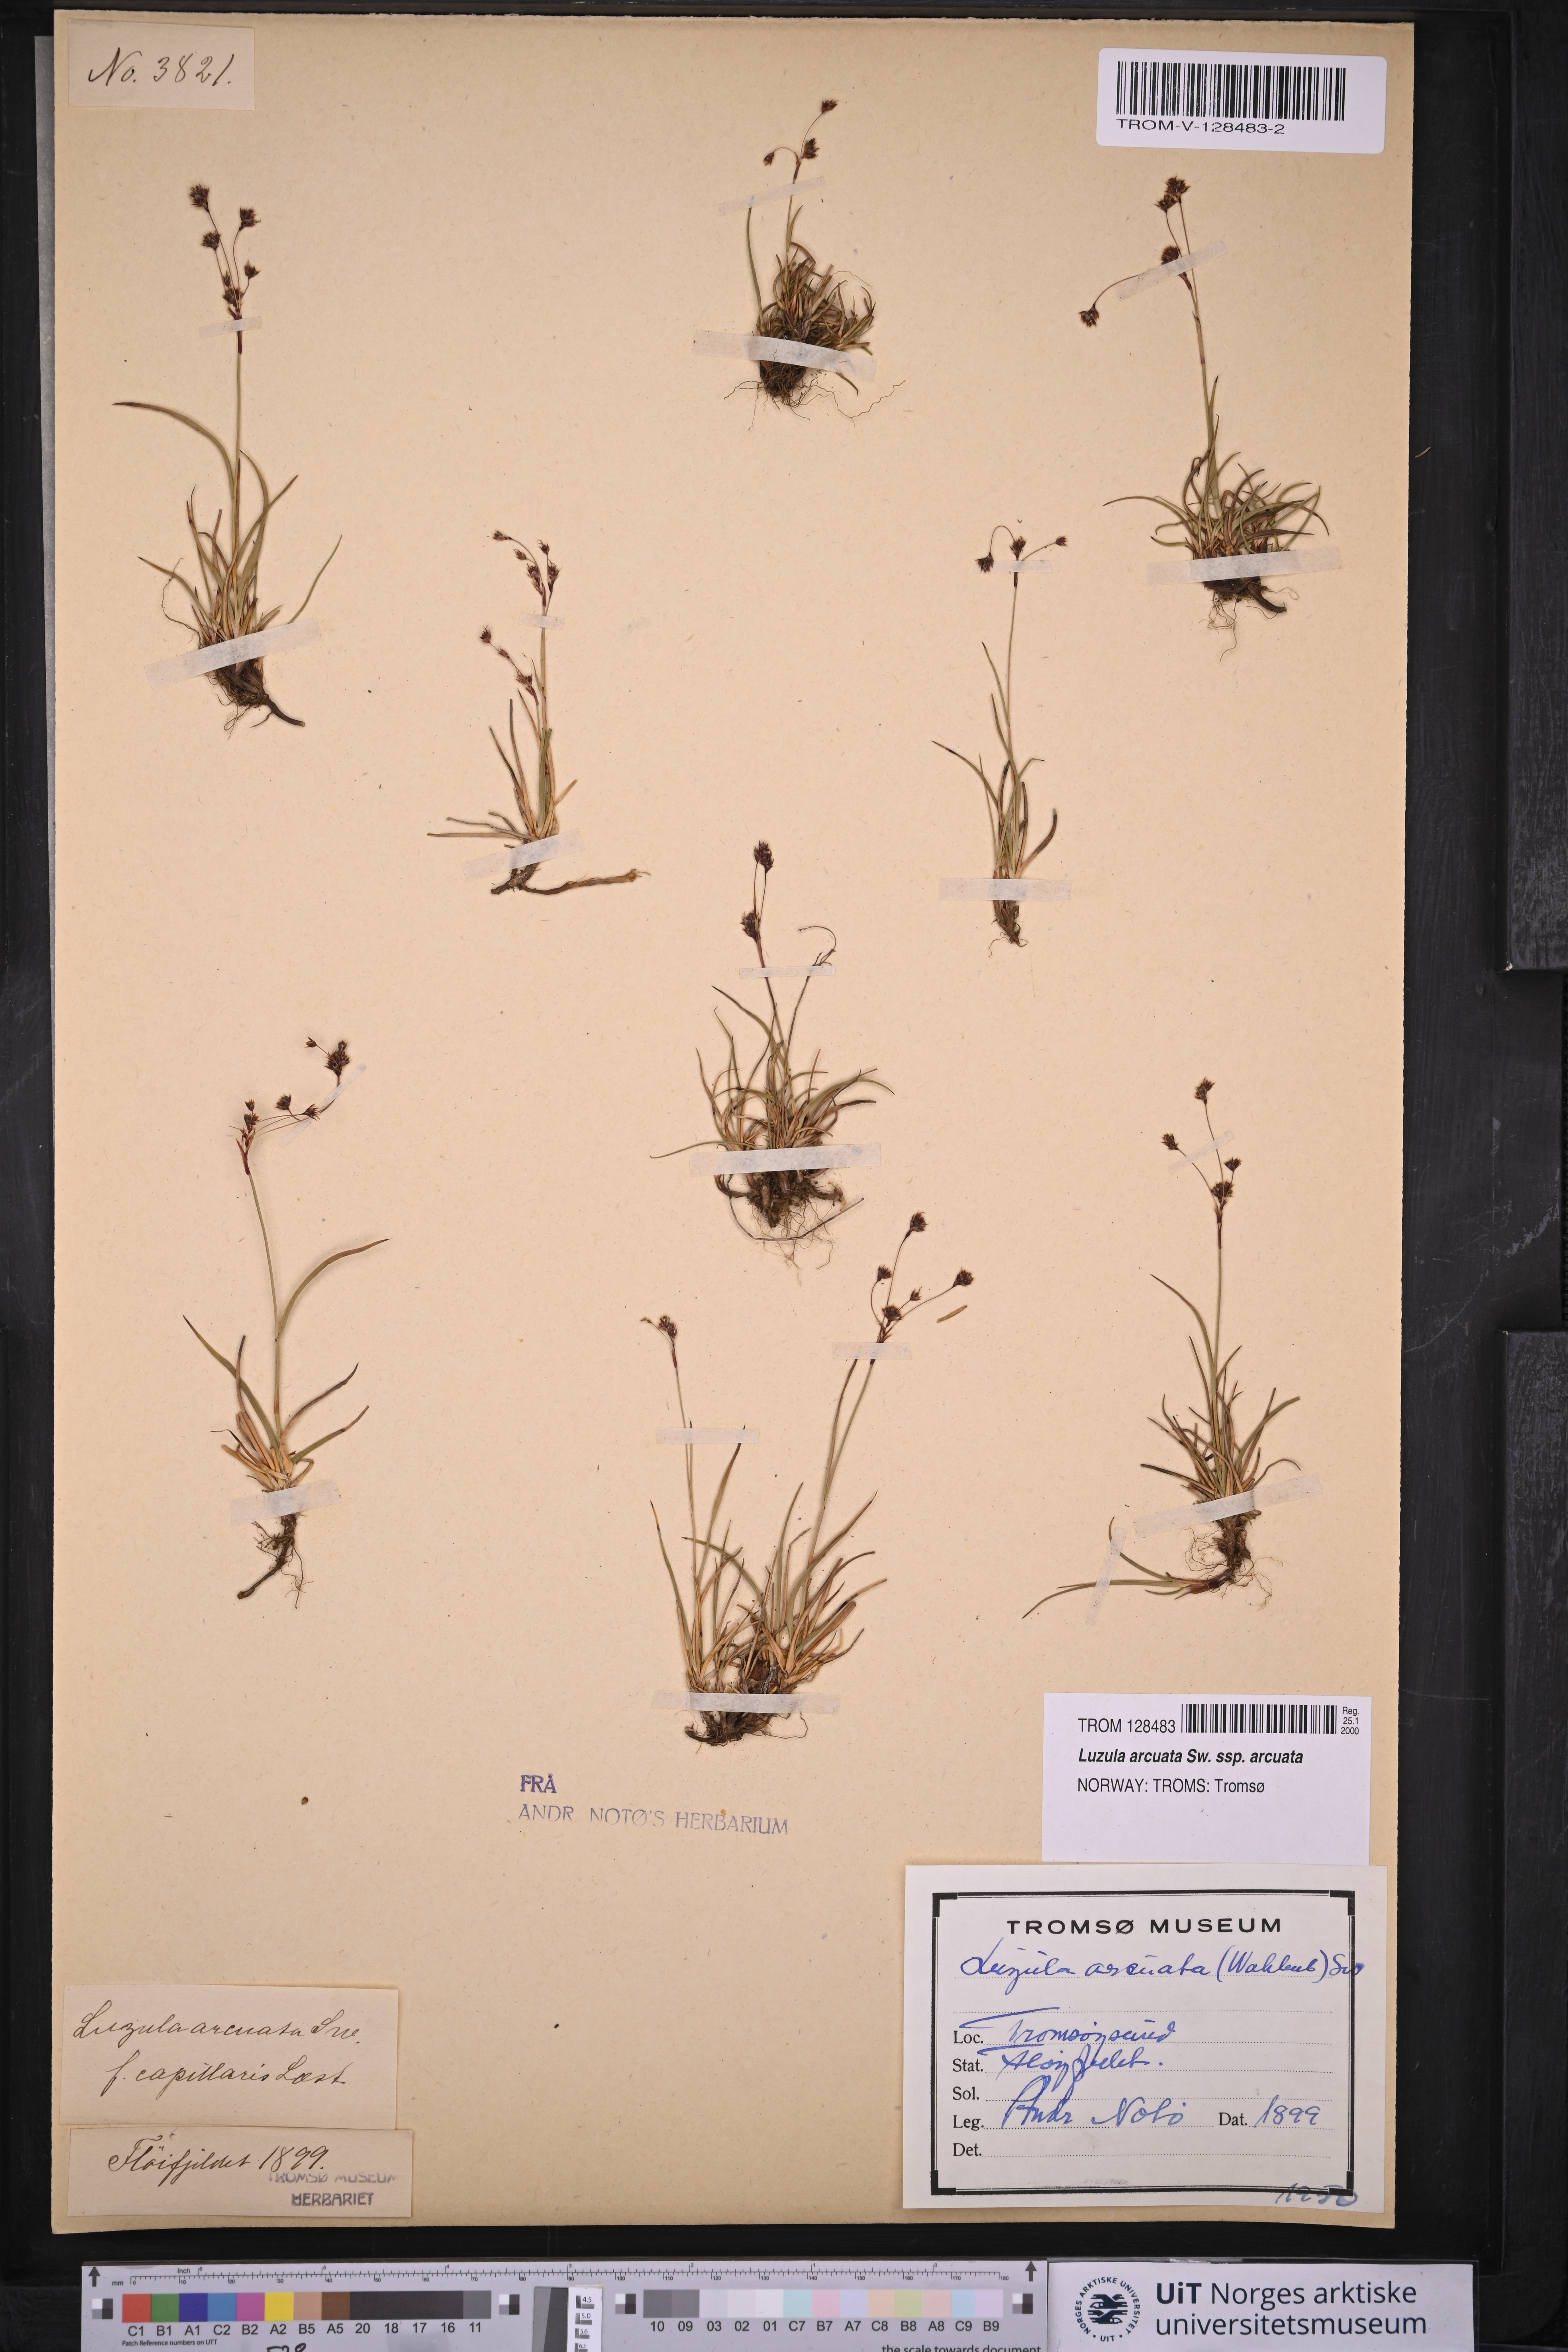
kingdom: Plantae
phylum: Tracheophyta
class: Liliopsida
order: Poales
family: Juncaceae
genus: Luzula
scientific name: Luzula arcuata
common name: Curved wood-rush
